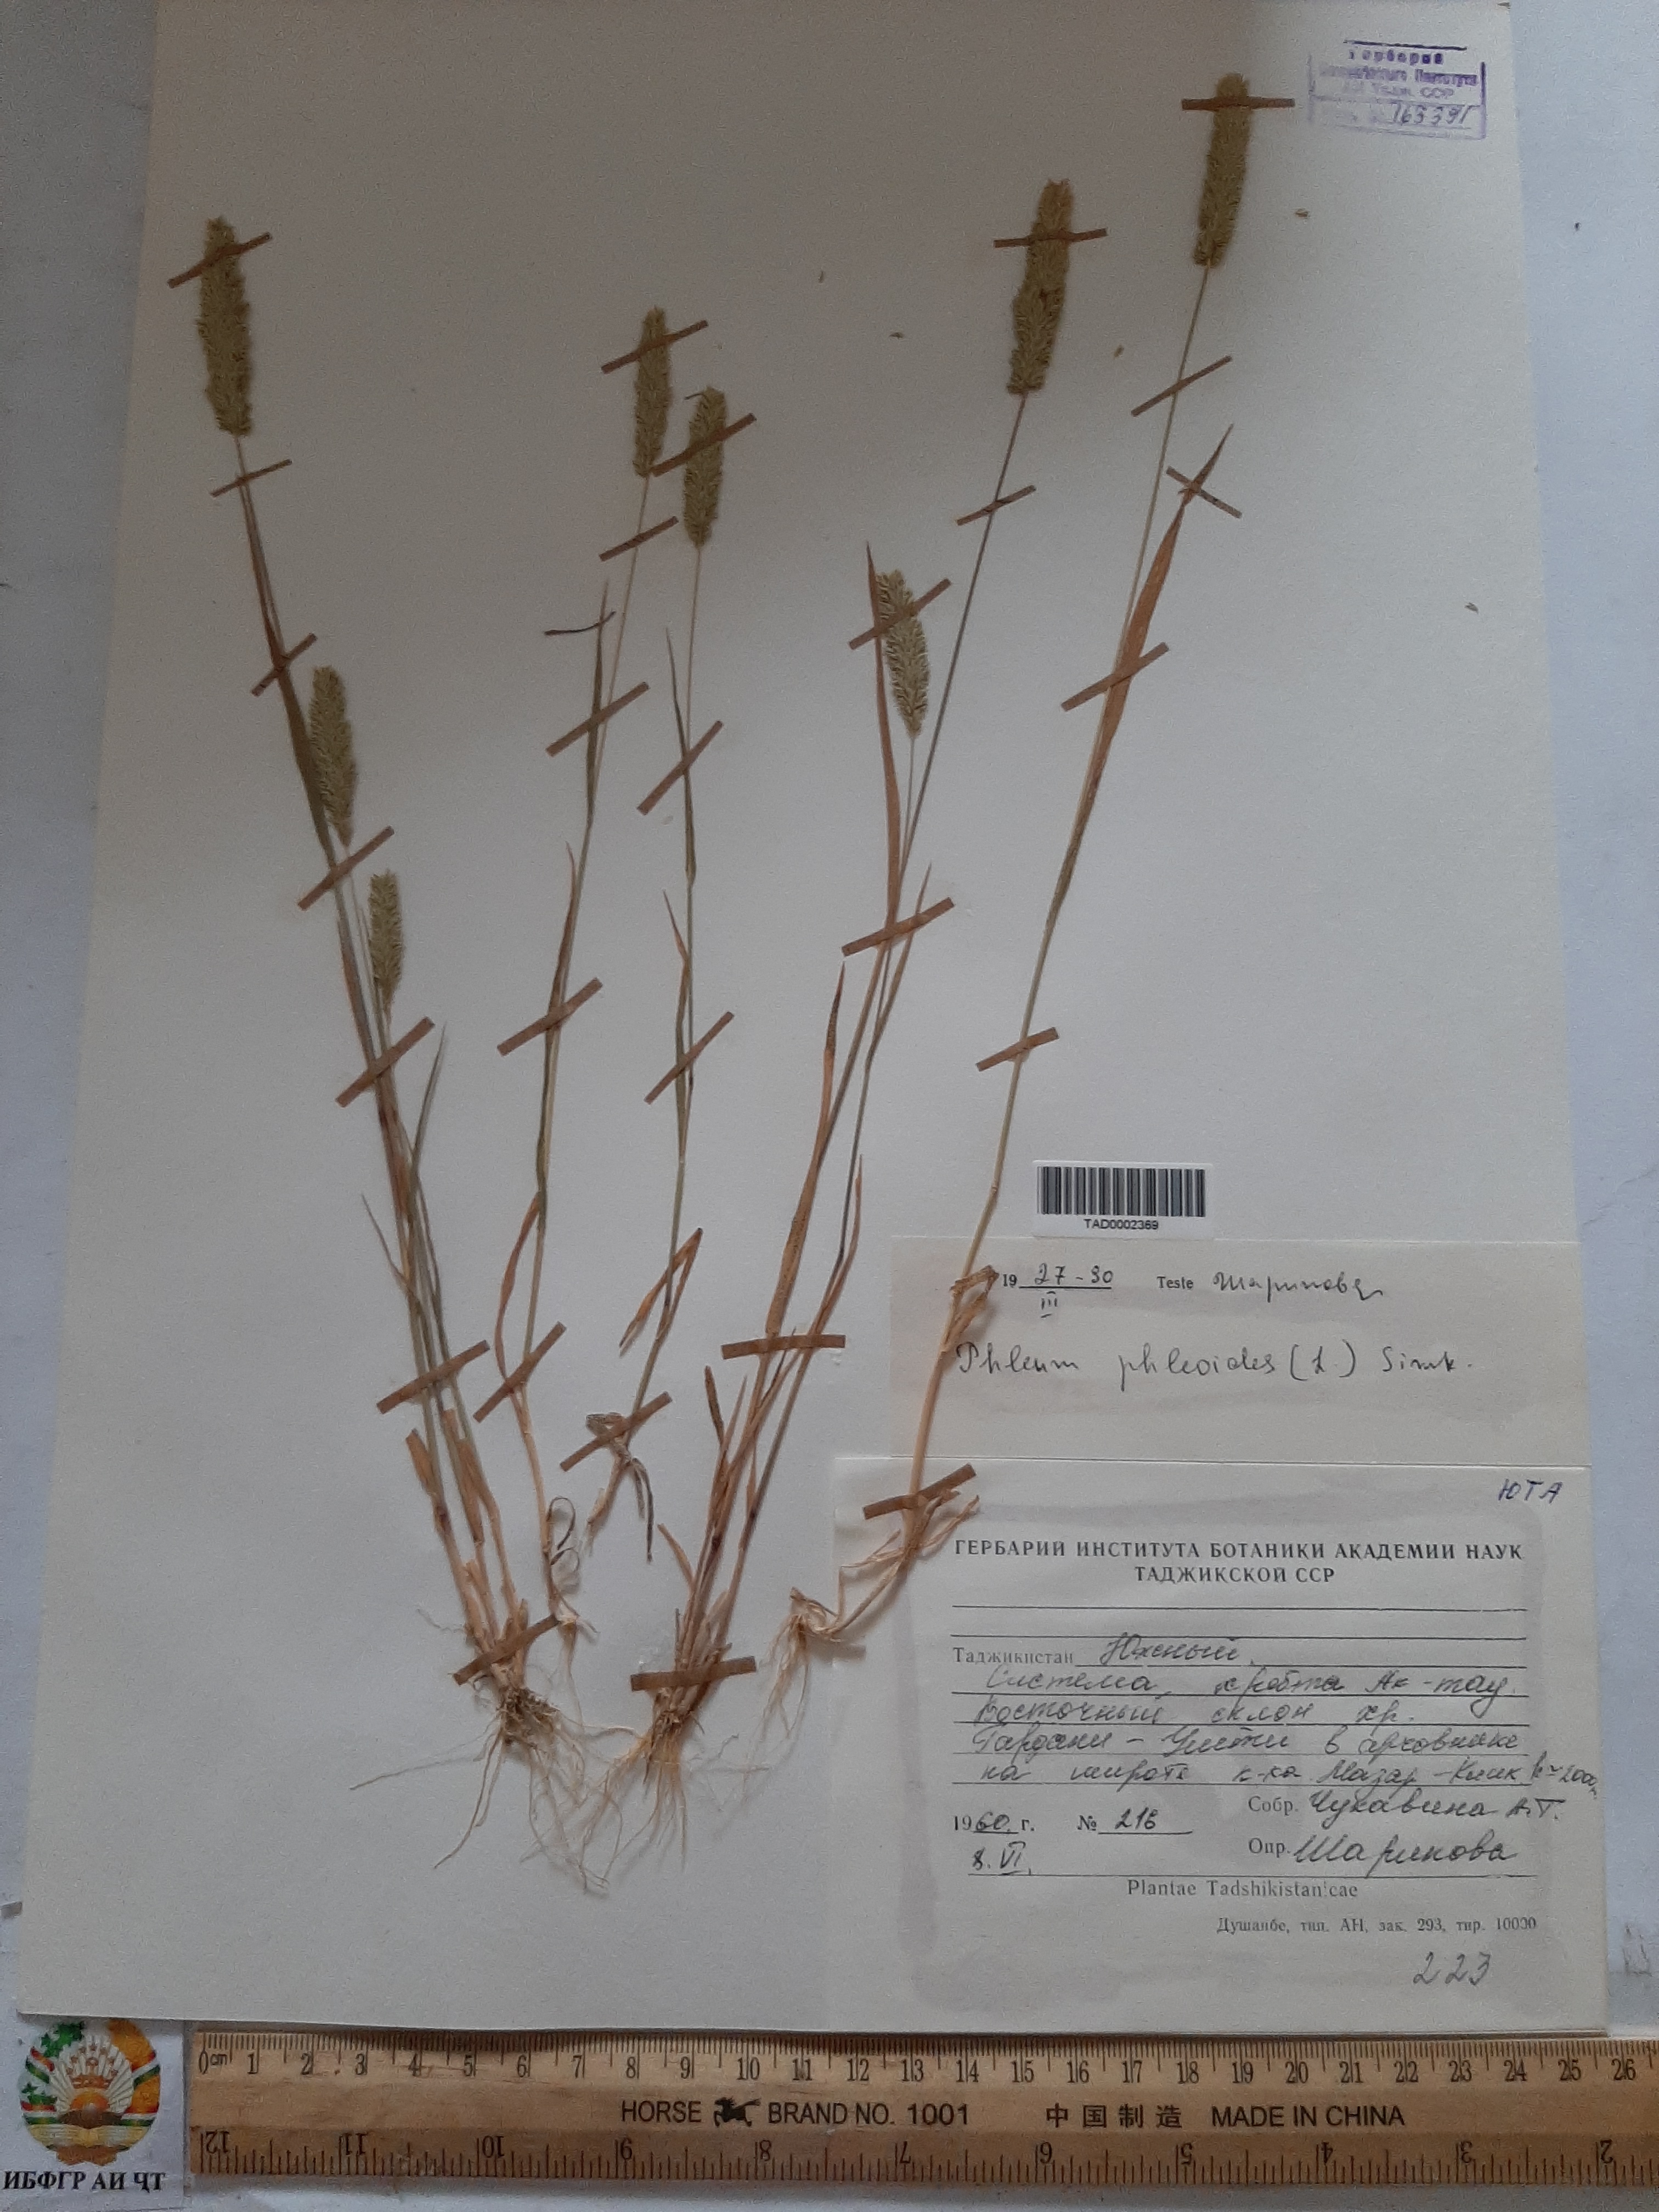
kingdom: Plantae
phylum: Tracheophyta
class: Liliopsida
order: Poales
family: Poaceae
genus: Phleum
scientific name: Phleum phleoides
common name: Purple-stem cat's-tail
